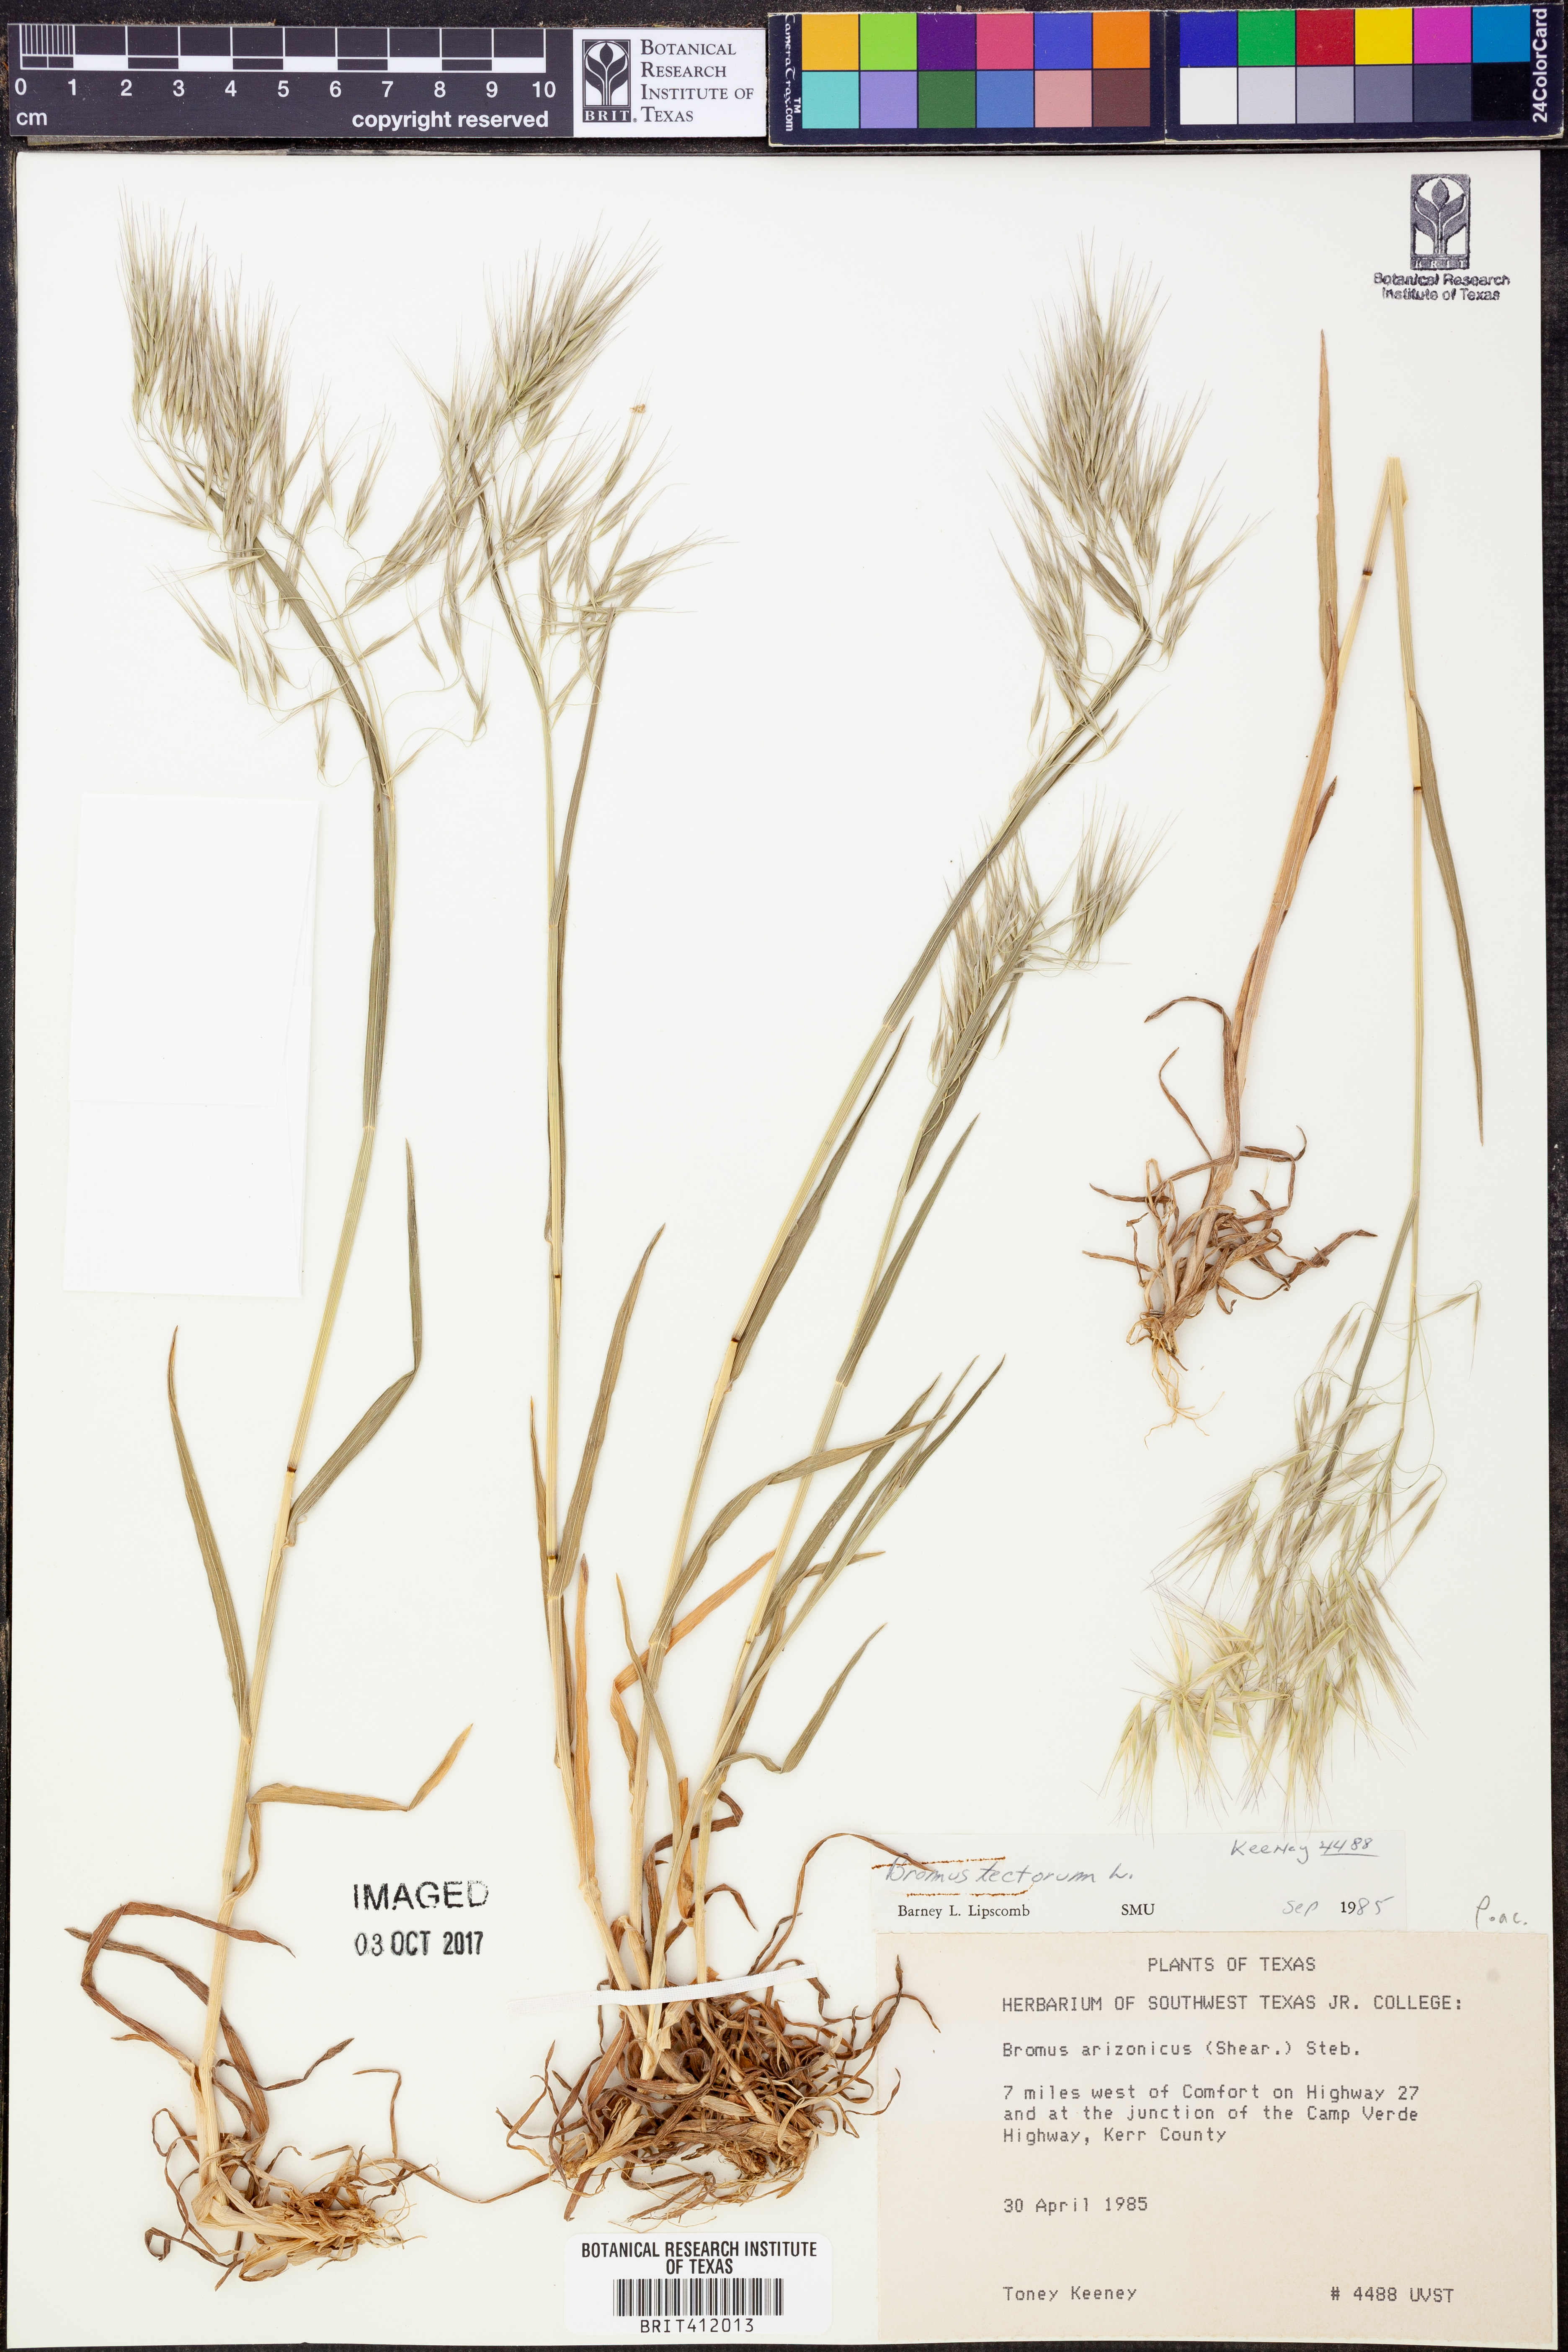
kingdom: Plantae
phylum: Tracheophyta
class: Liliopsida
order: Poales
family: Poaceae
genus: Bromus
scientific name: Bromus tectorum
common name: Cheatgrass
